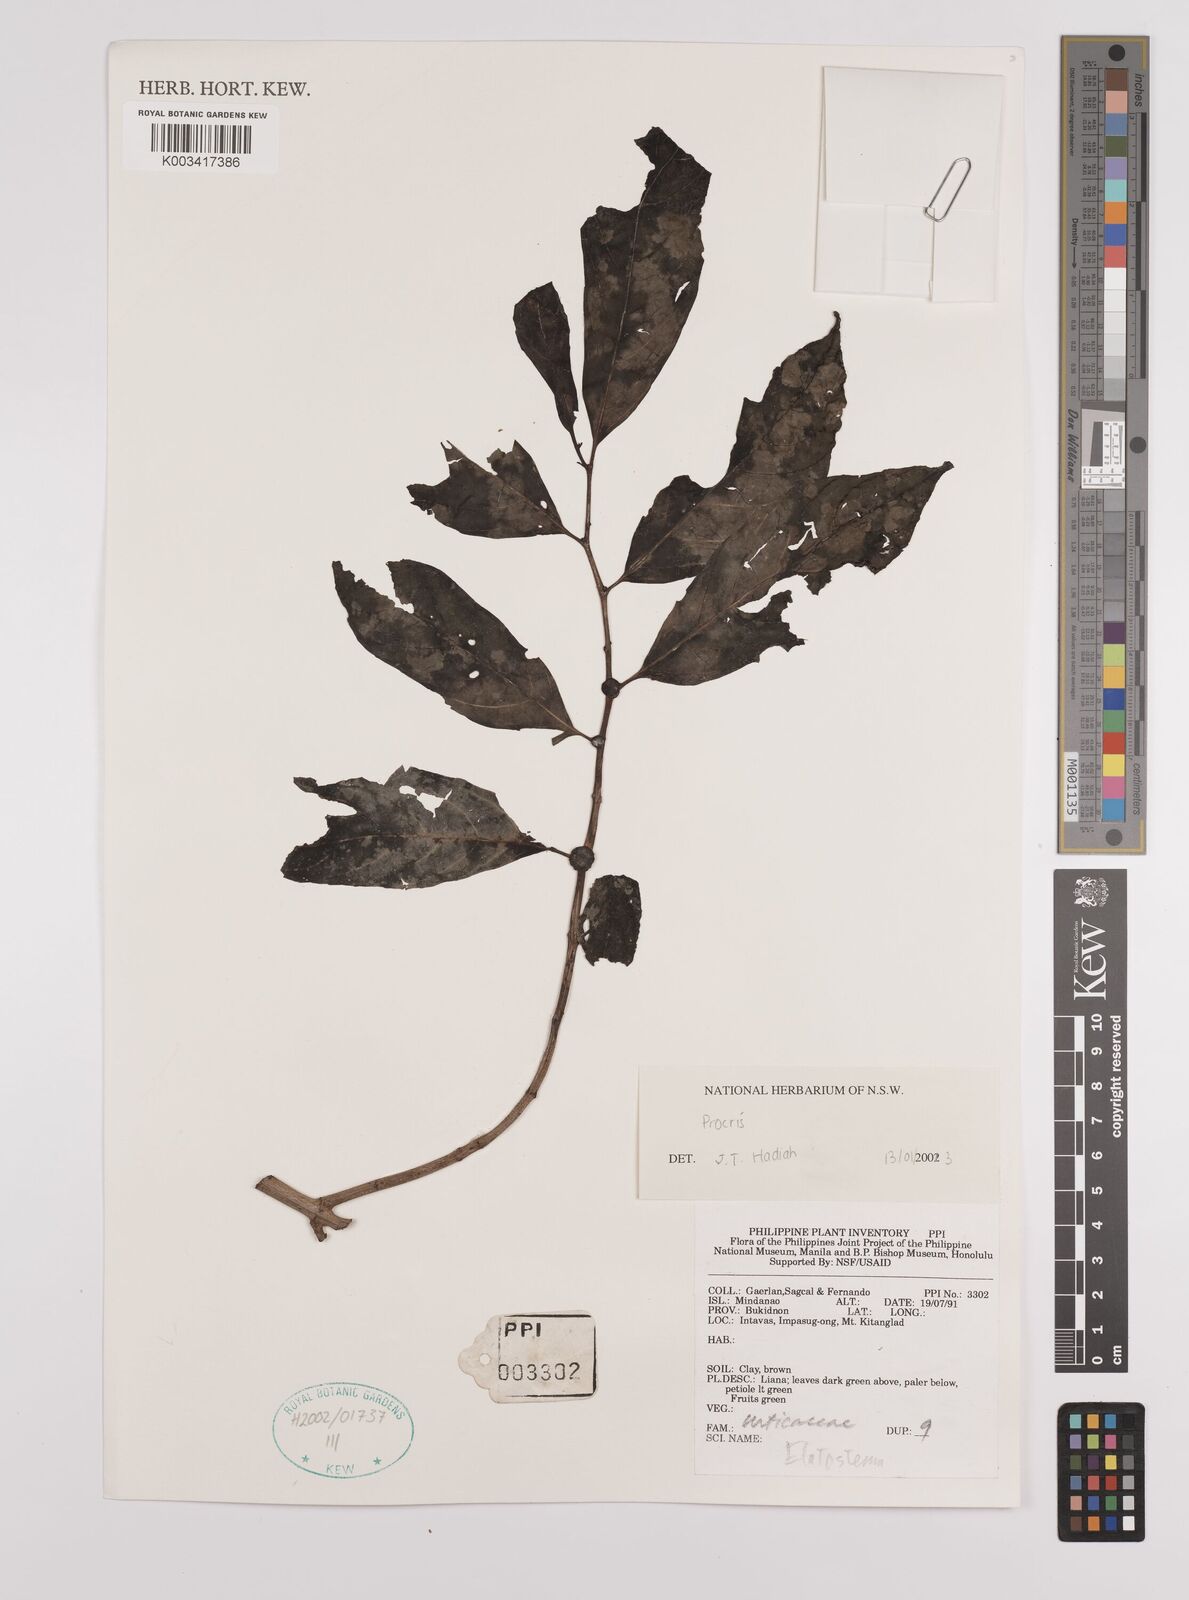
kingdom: Plantae
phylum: Tracheophyta
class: Magnoliopsida
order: Rosales
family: Urticaceae
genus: Procris
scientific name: Procris
